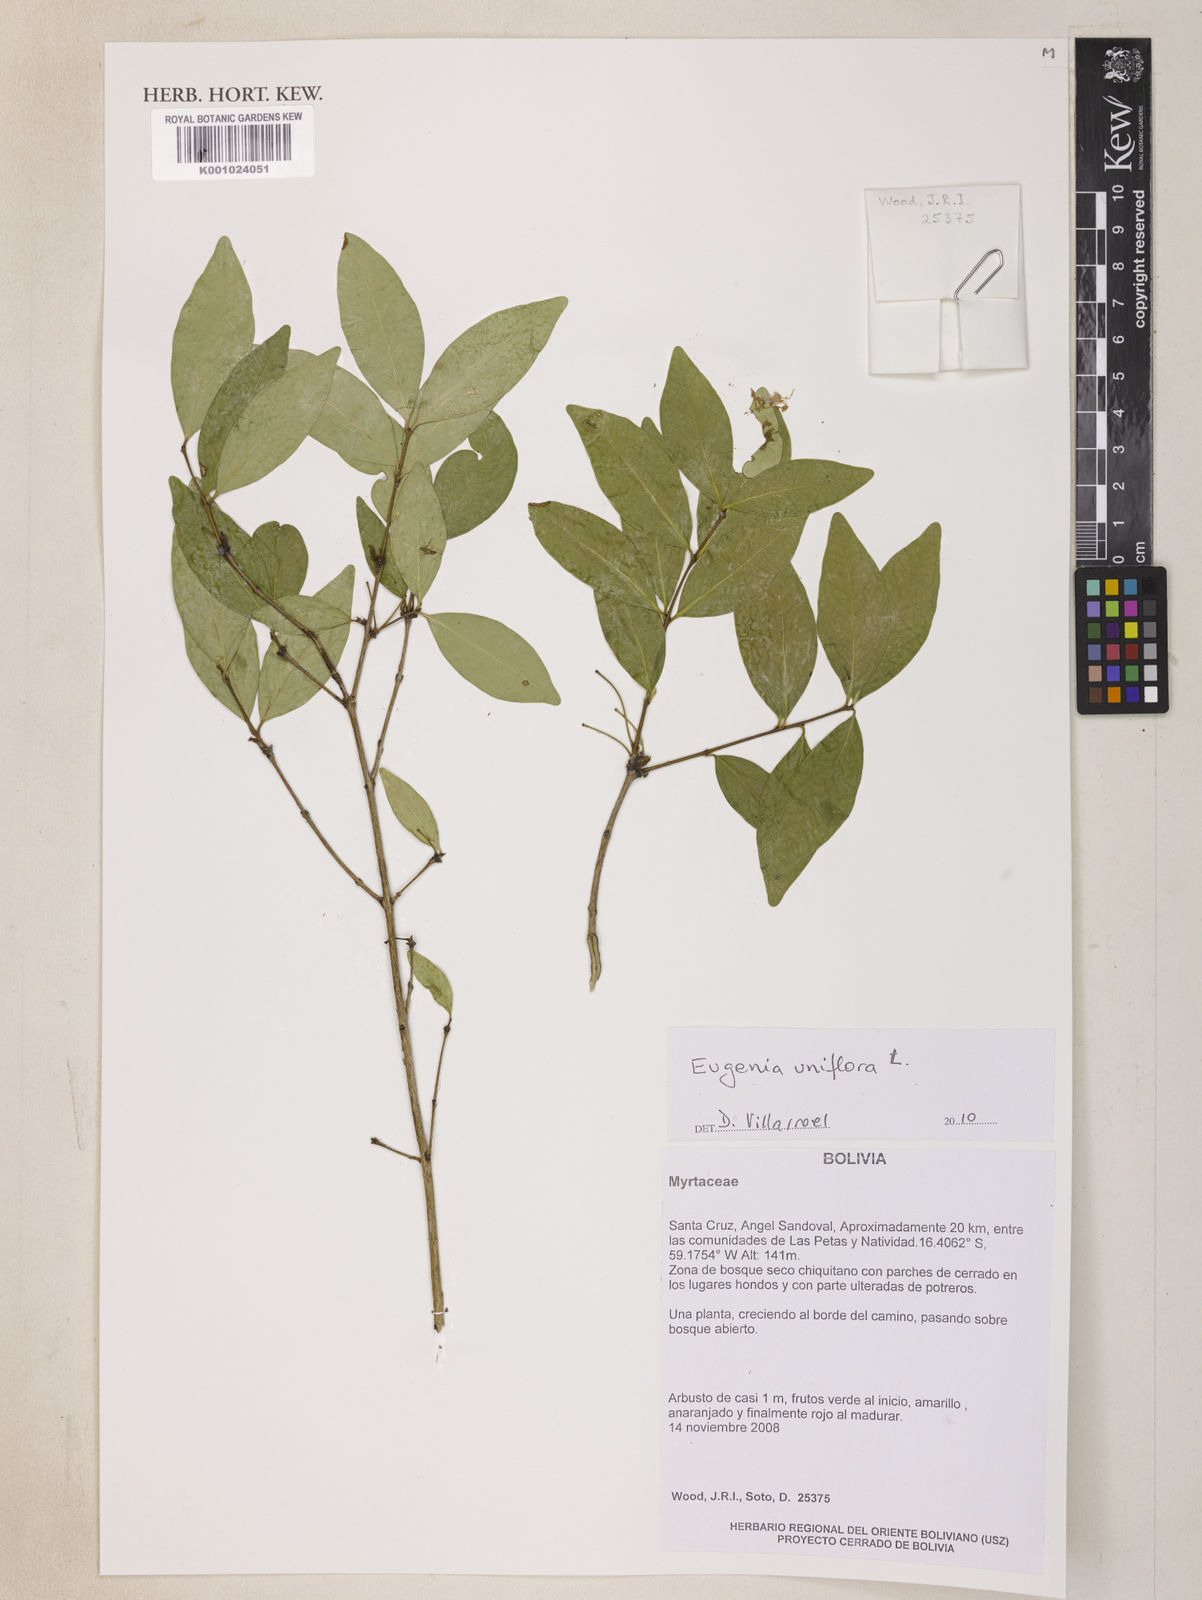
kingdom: Plantae
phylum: Tracheophyta
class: Magnoliopsida
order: Myrtales
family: Myrtaceae
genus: Eugenia
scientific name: Eugenia uniflora
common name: Surinam cherry
